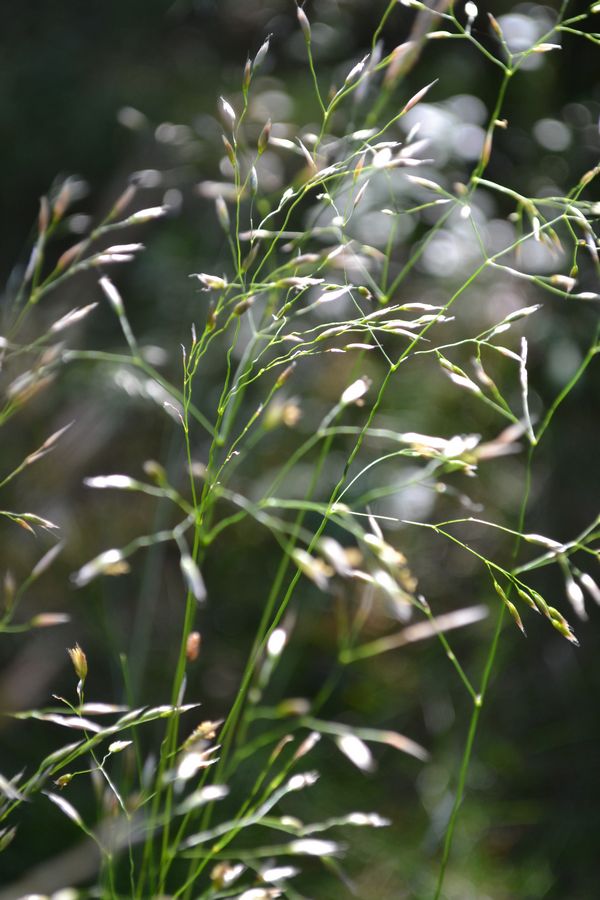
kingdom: Plantae
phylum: Tracheophyta
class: Liliopsida
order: Poales
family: Poaceae
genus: Avenella
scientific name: Avenella flexuosa
